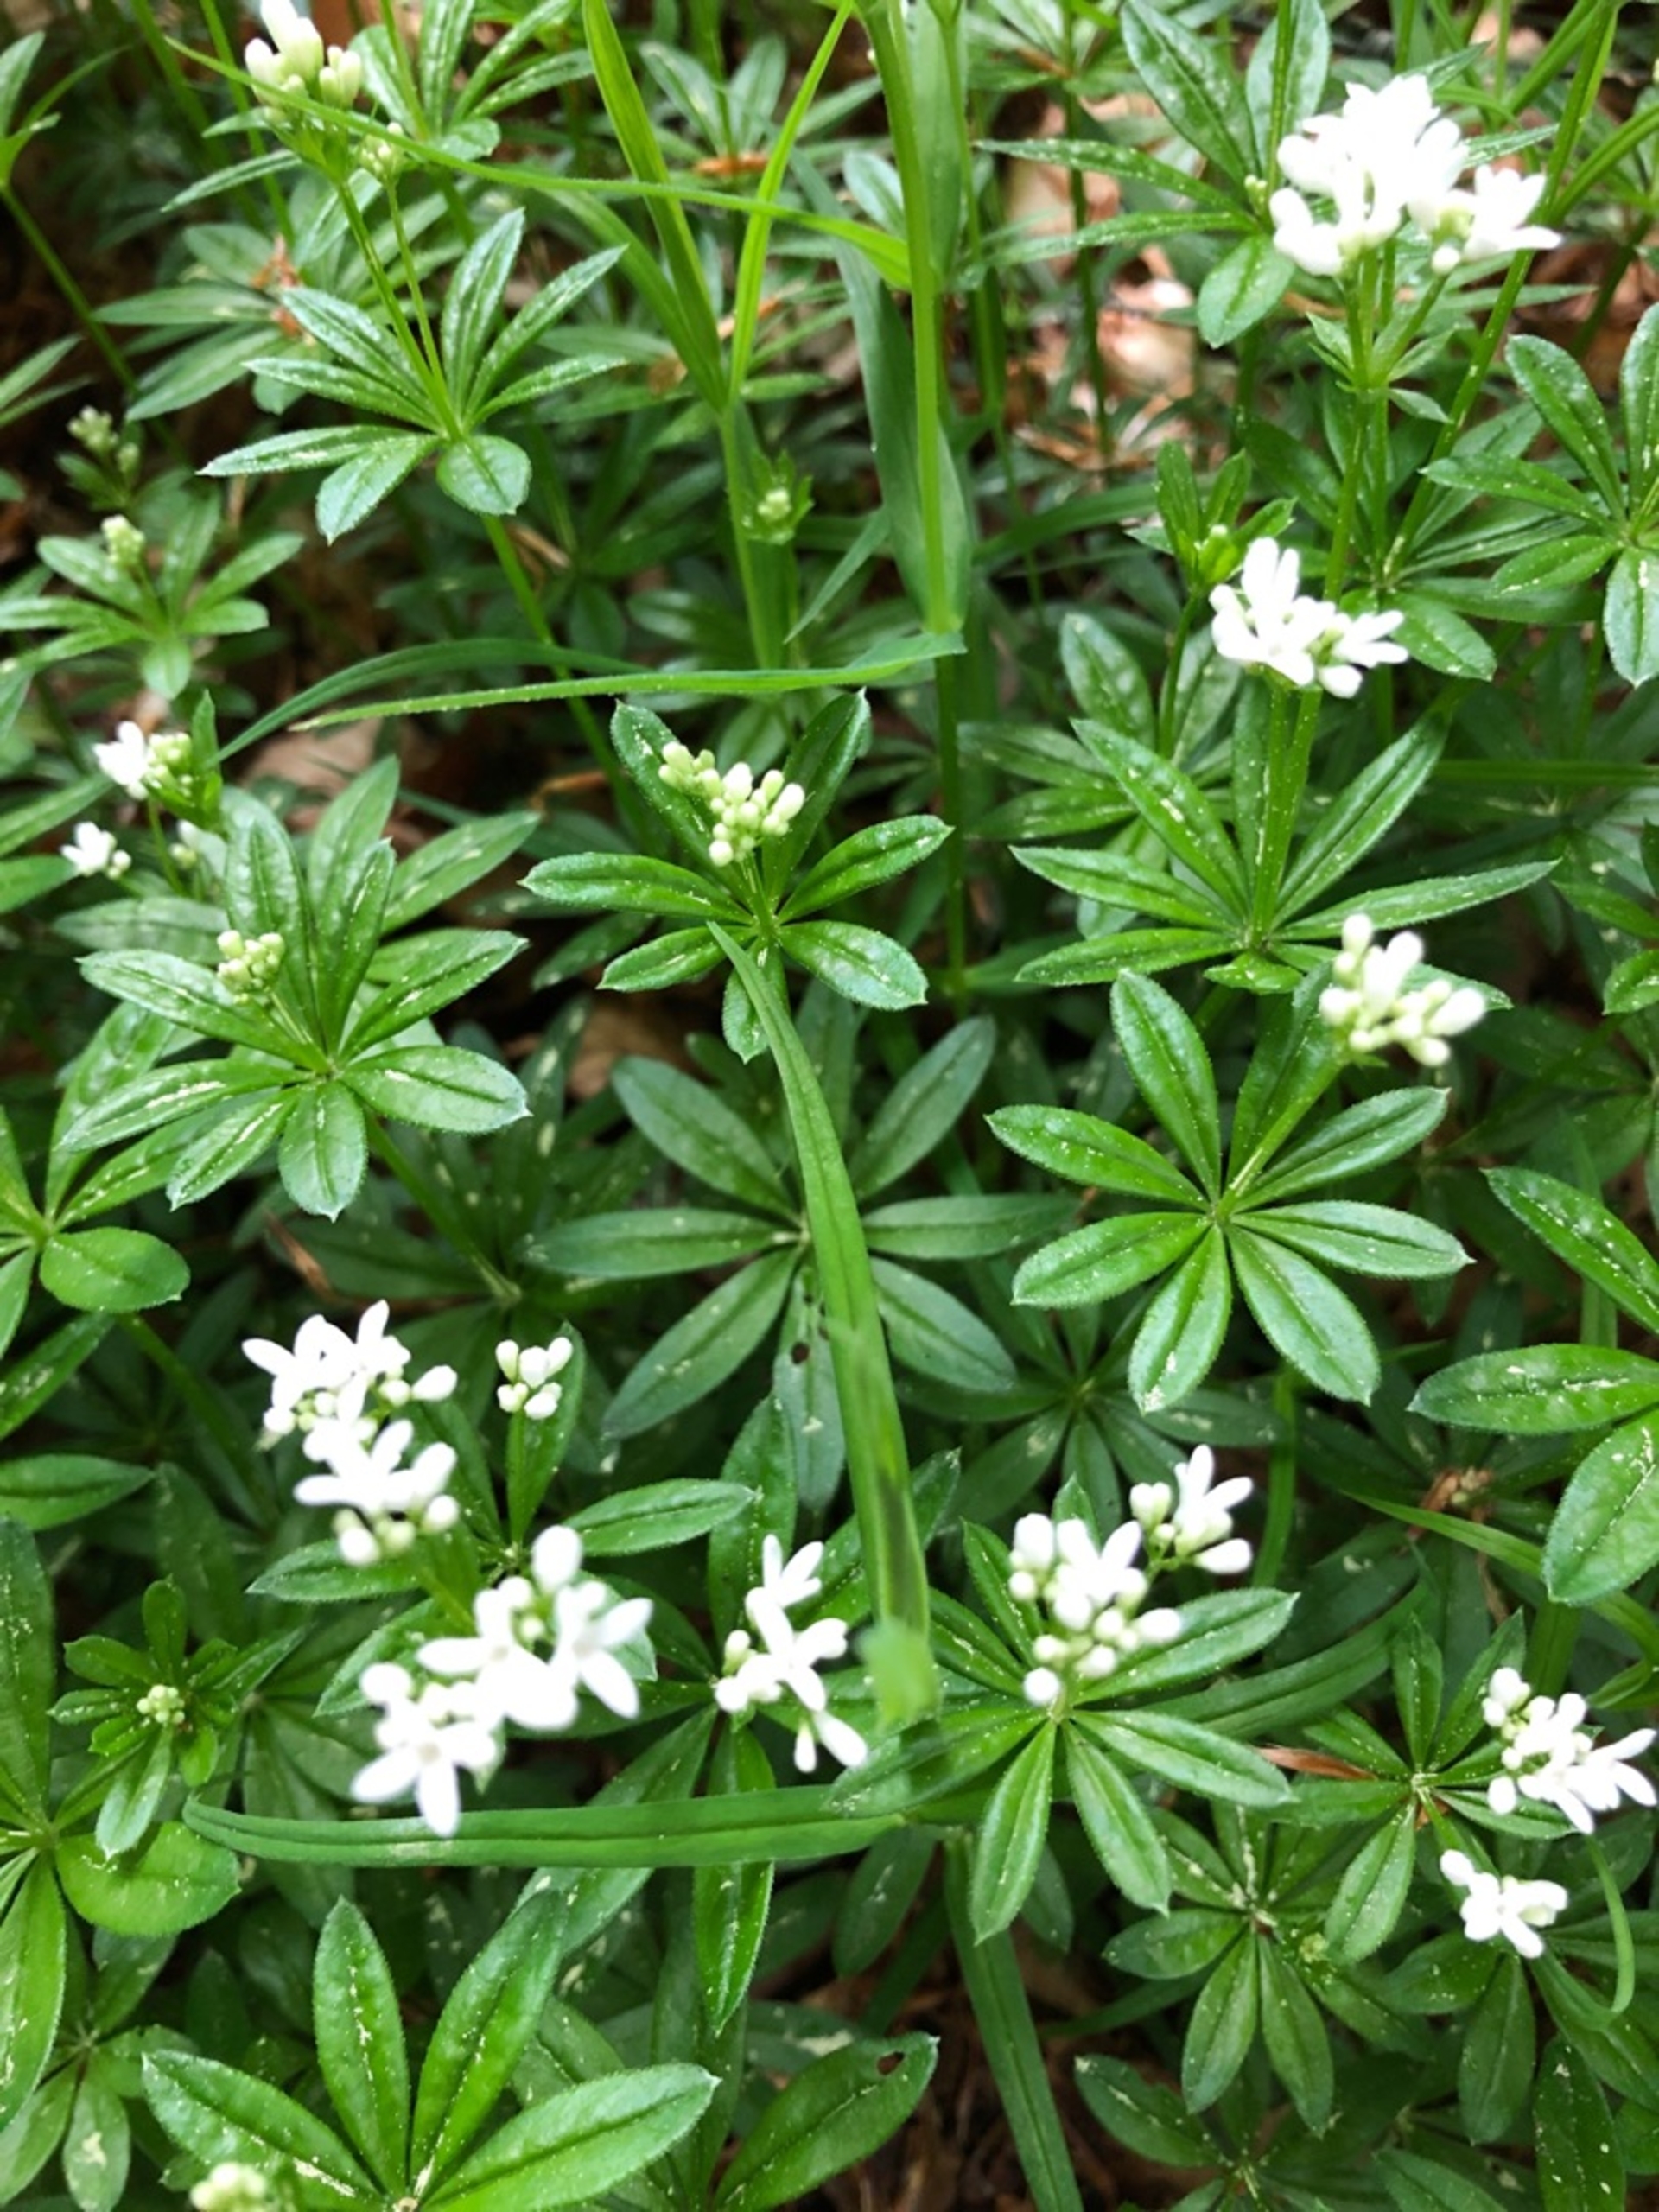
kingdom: Plantae
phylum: Tracheophyta
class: Magnoliopsida
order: Gentianales
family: Rubiaceae
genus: Galium
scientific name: Galium odoratum
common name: Skovmærke
